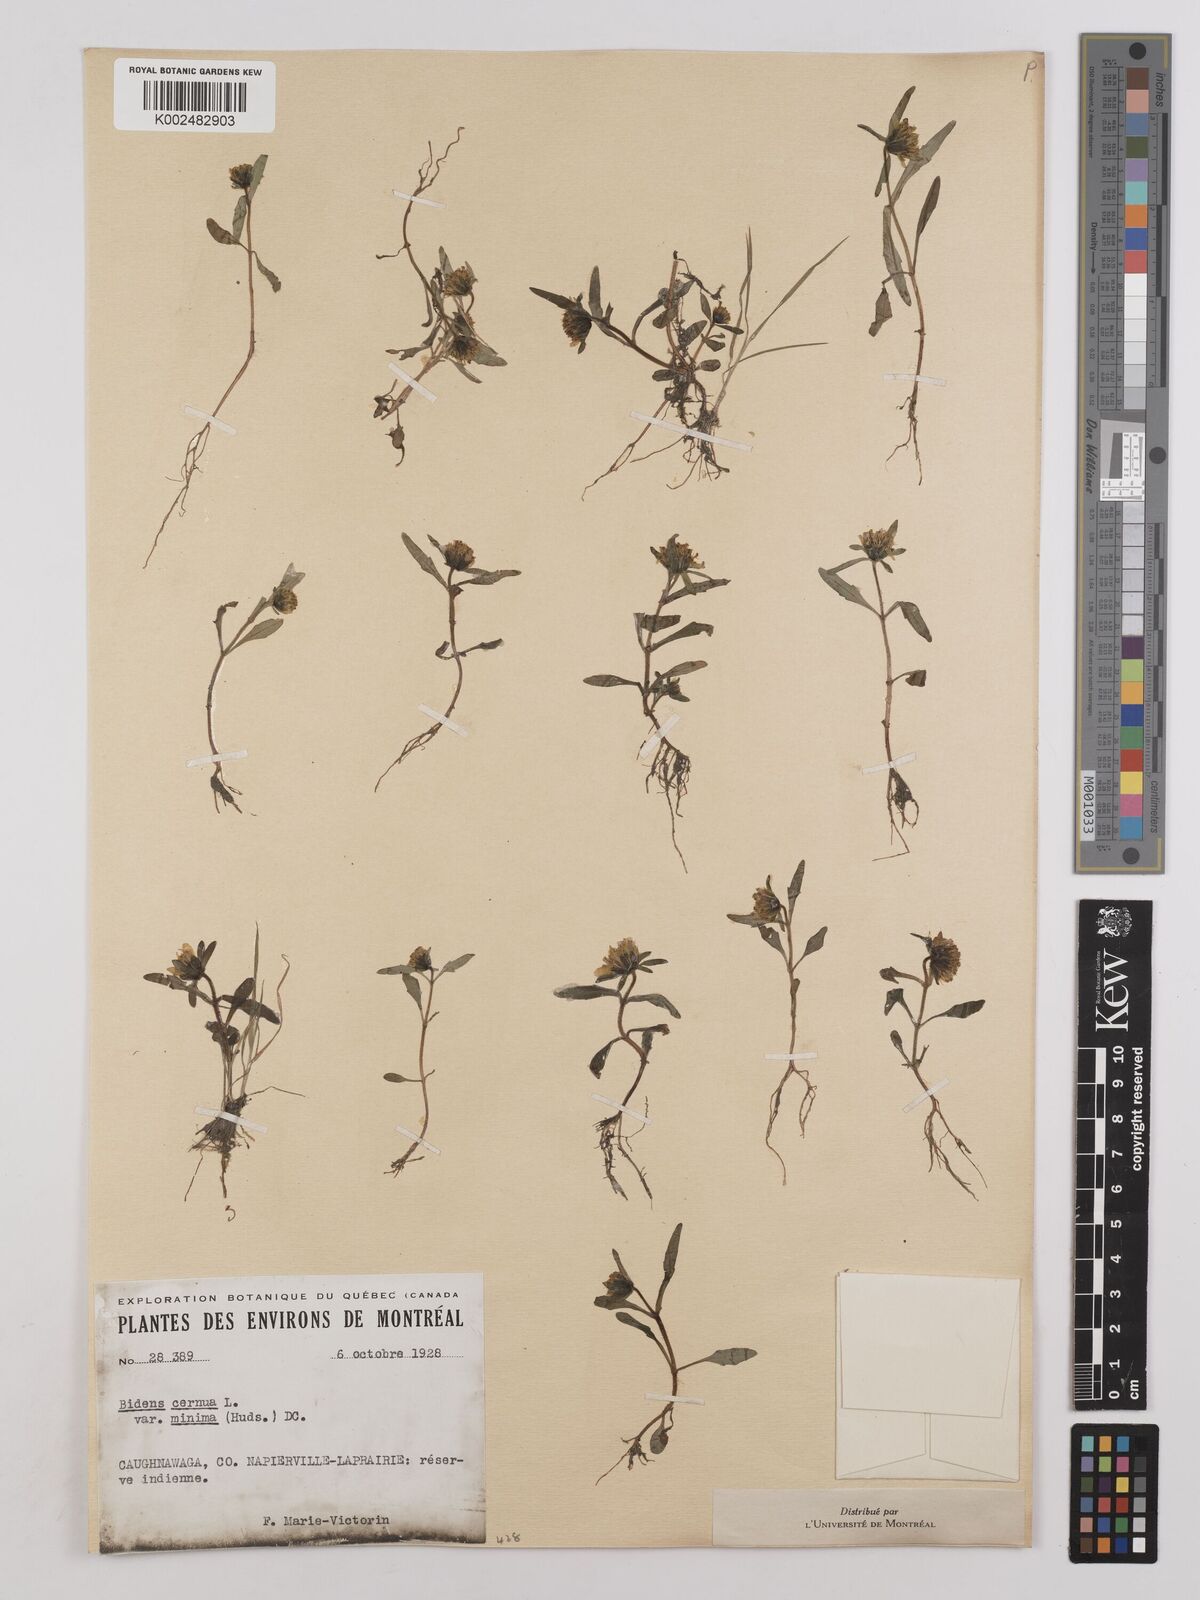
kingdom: Plantae
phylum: Tracheophyta
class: Magnoliopsida
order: Asterales
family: Asteraceae
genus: Bidens
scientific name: Bidens
